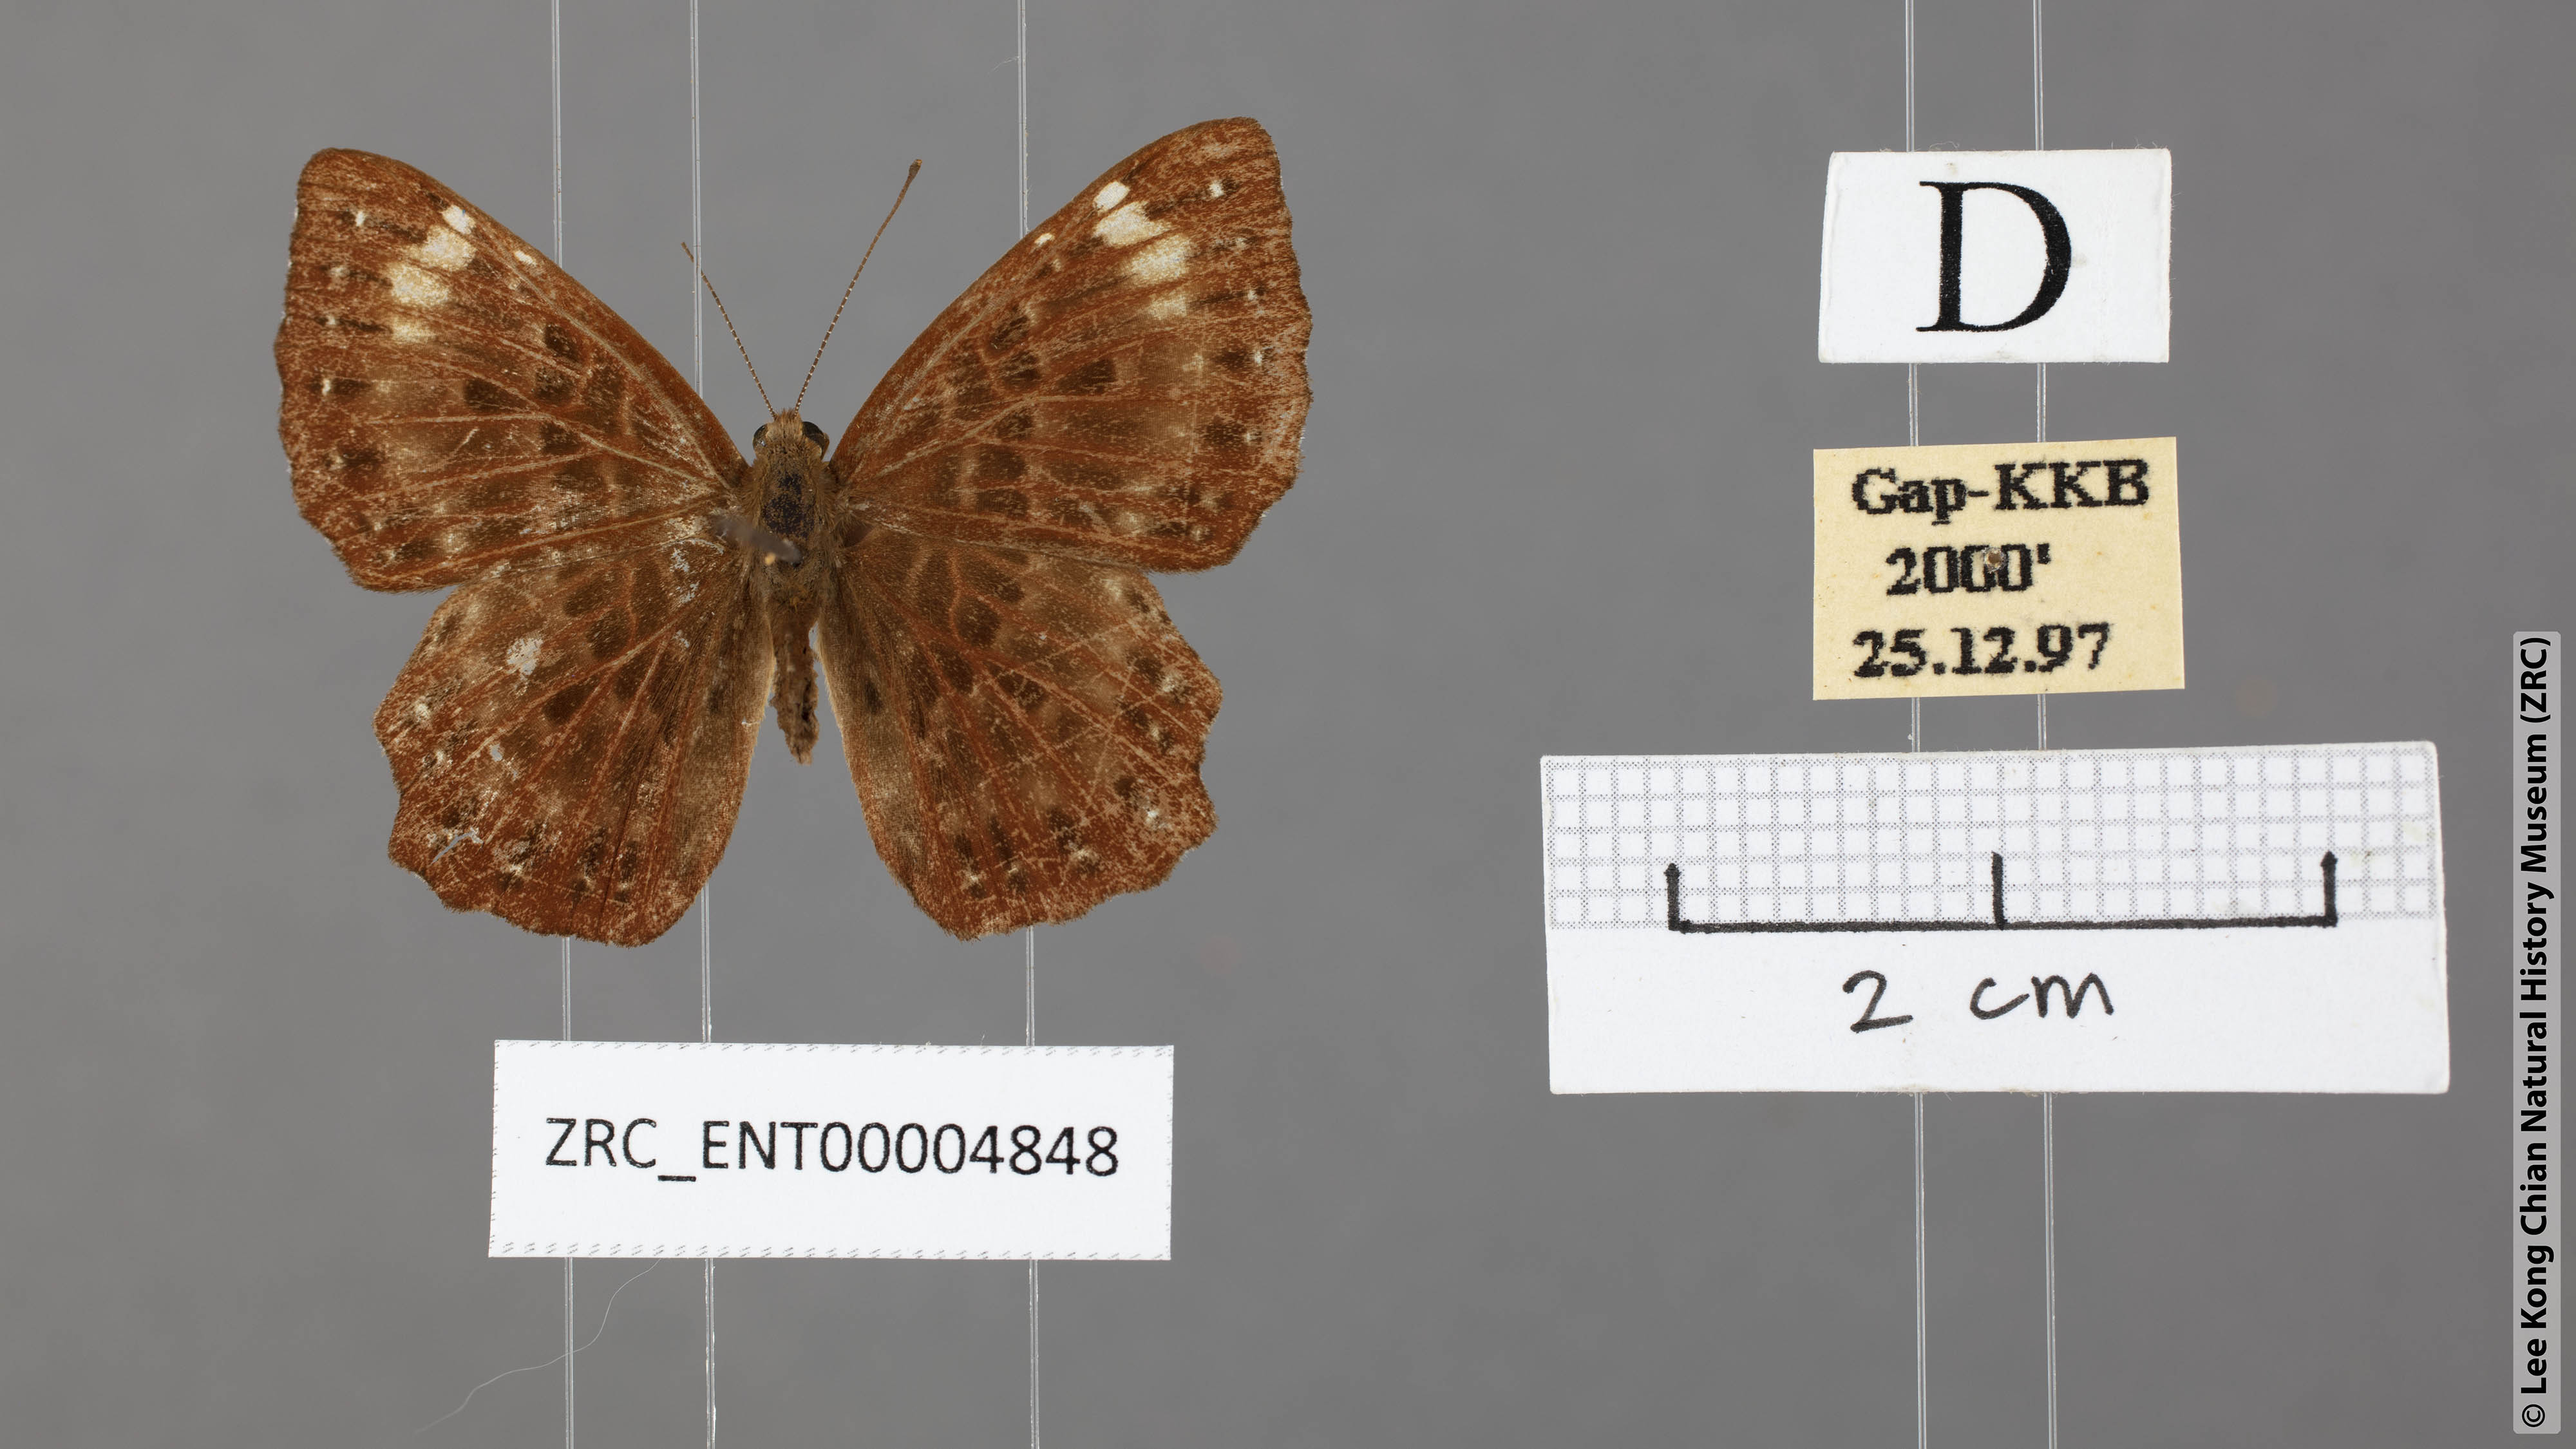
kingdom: Animalia
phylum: Arthropoda
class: Insecta
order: Lepidoptera
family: Riodinidae
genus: Zemeros
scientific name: Zemeros flegyas
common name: Punchinello
